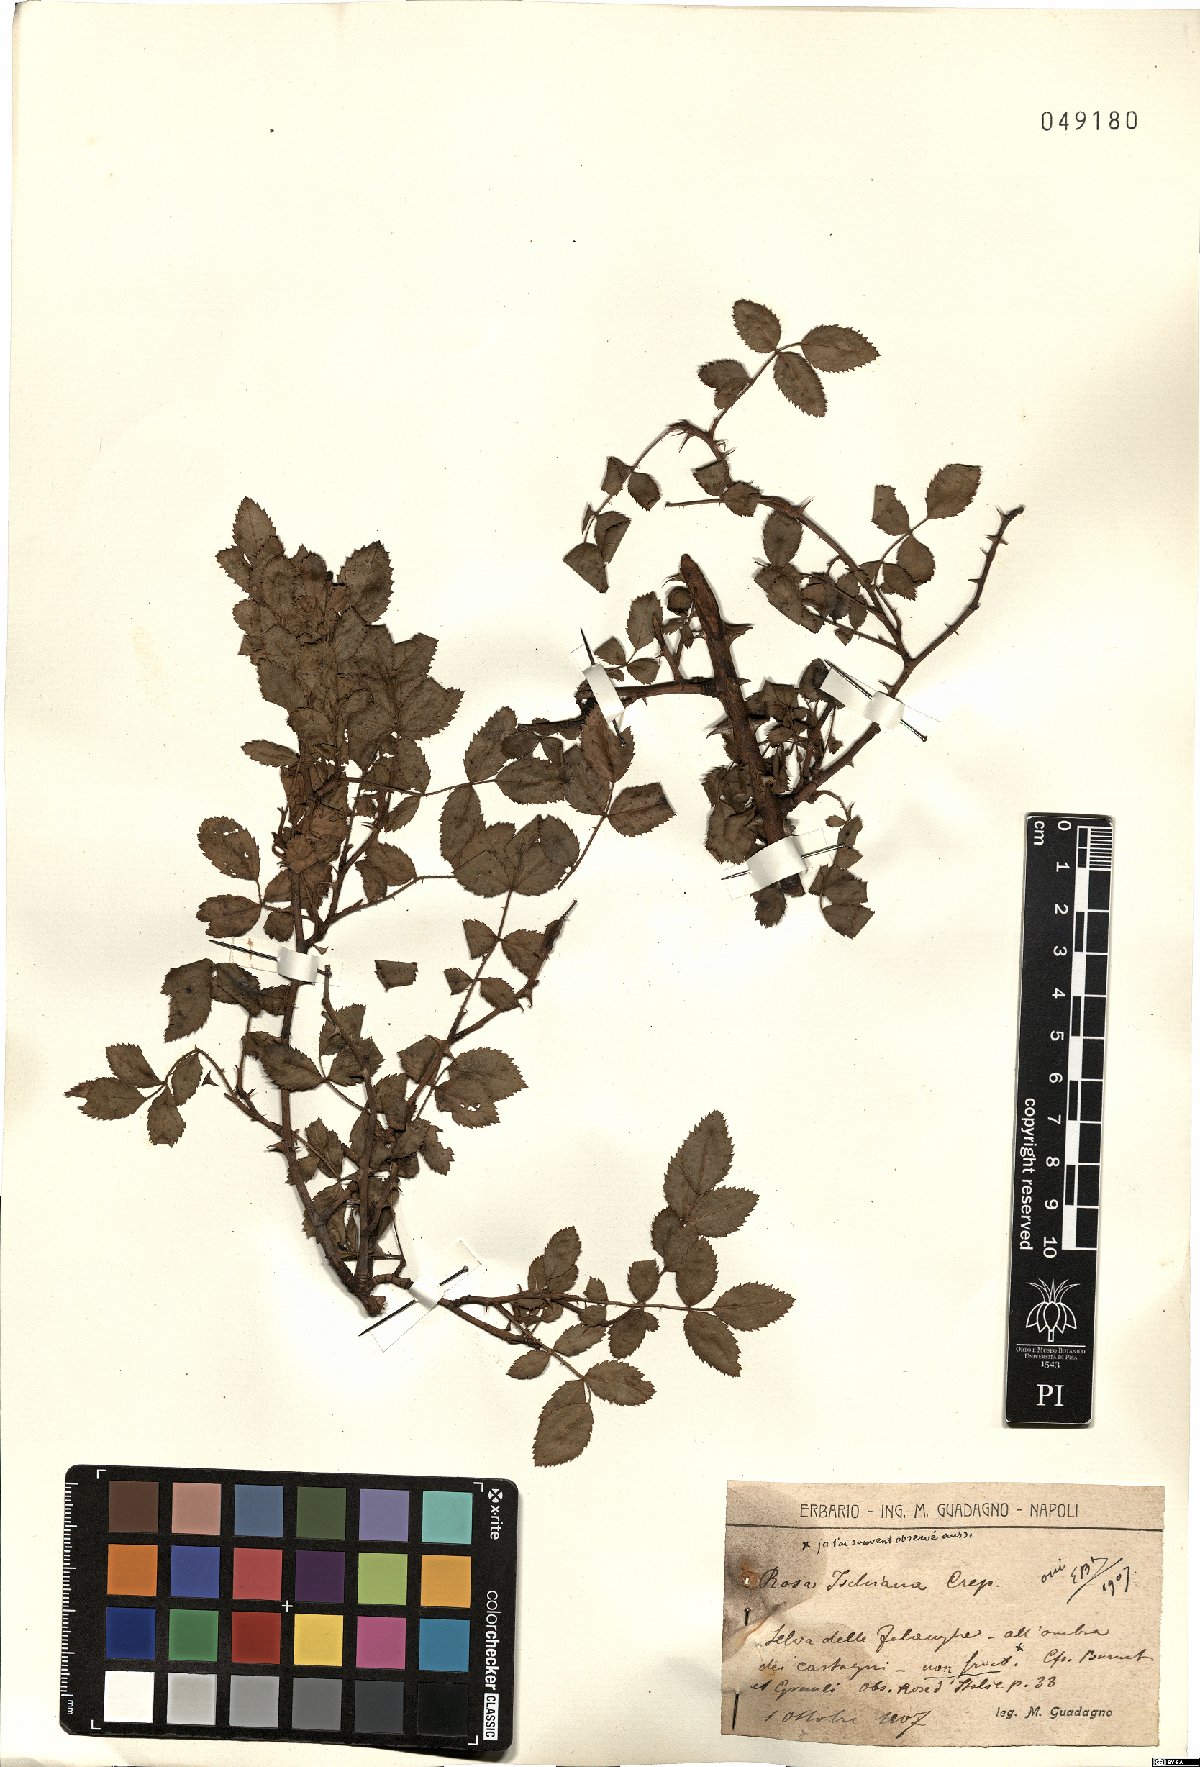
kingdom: Plantae
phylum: Tracheophyta
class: Magnoliopsida
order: Rosales
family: Rosaceae
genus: Rosa
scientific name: Rosa ischiana
